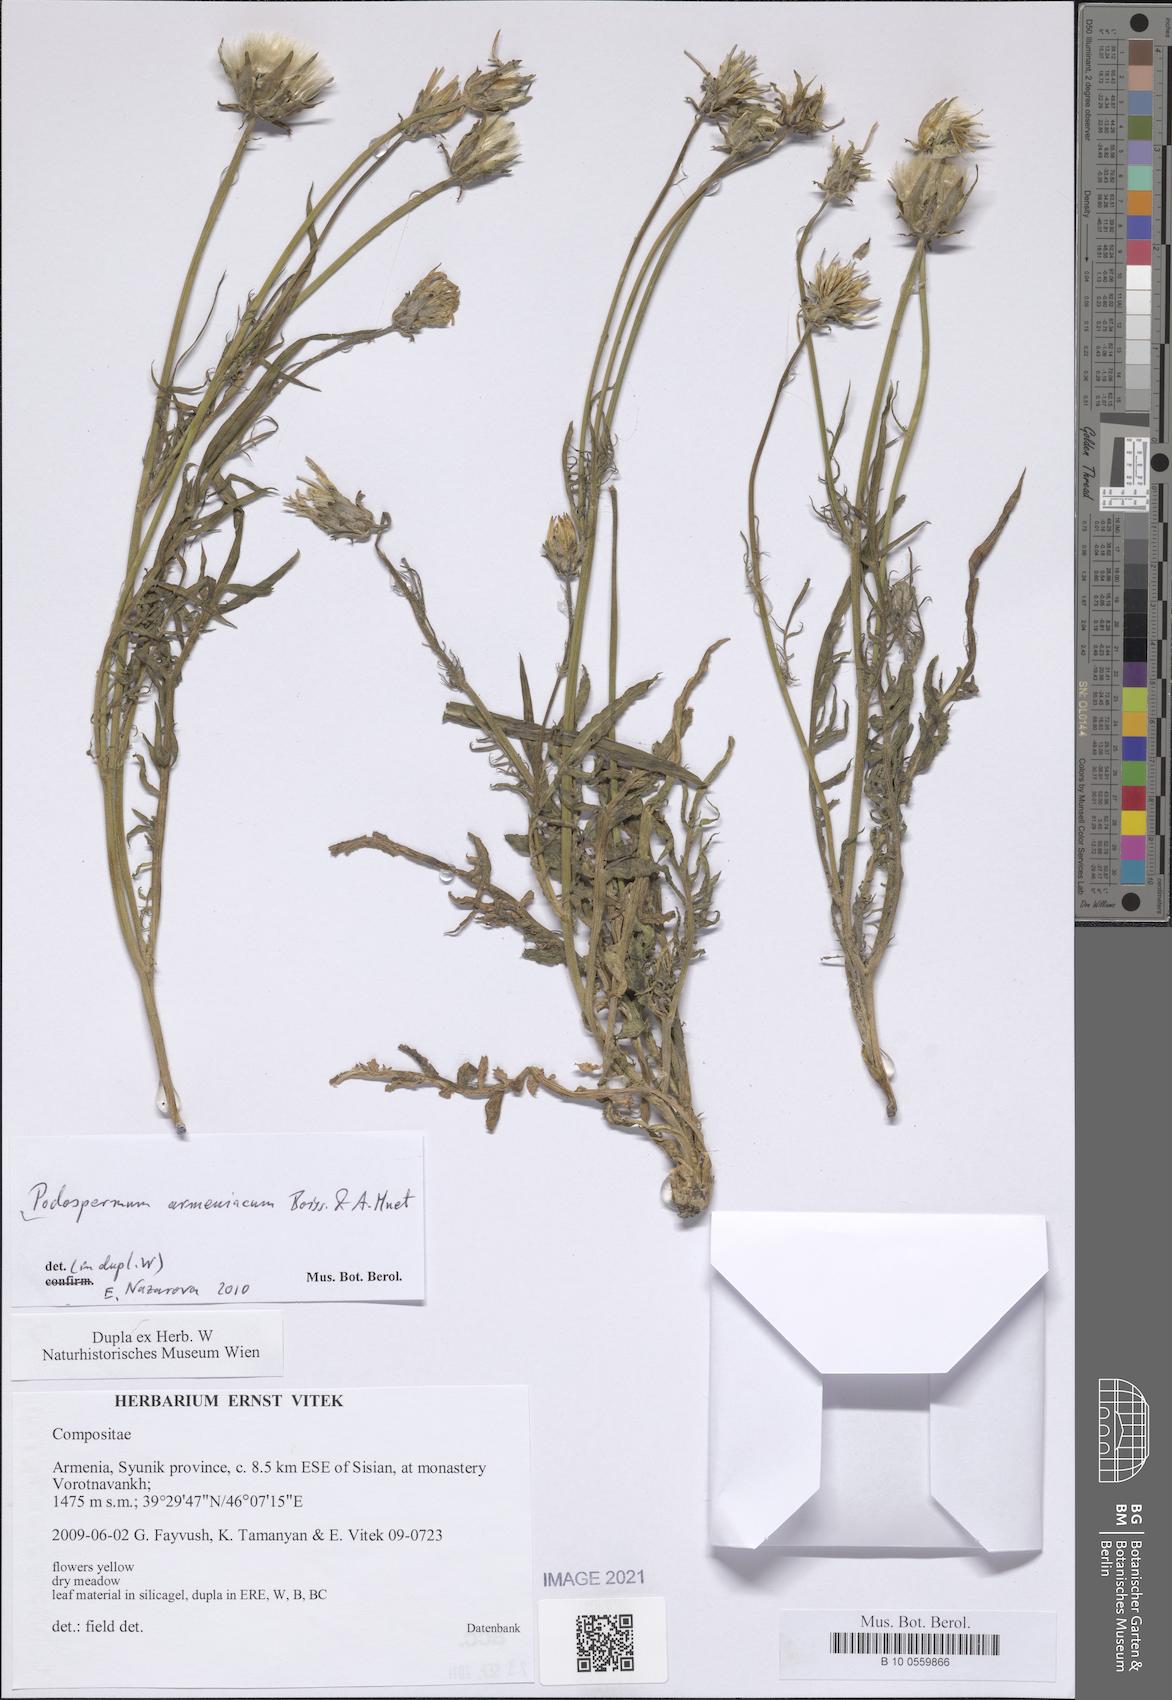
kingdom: Plantae
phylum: Tracheophyta
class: Magnoliopsida
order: Asterales
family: Asteraceae
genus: Scorzonera
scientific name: Scorzonera armeniaca
